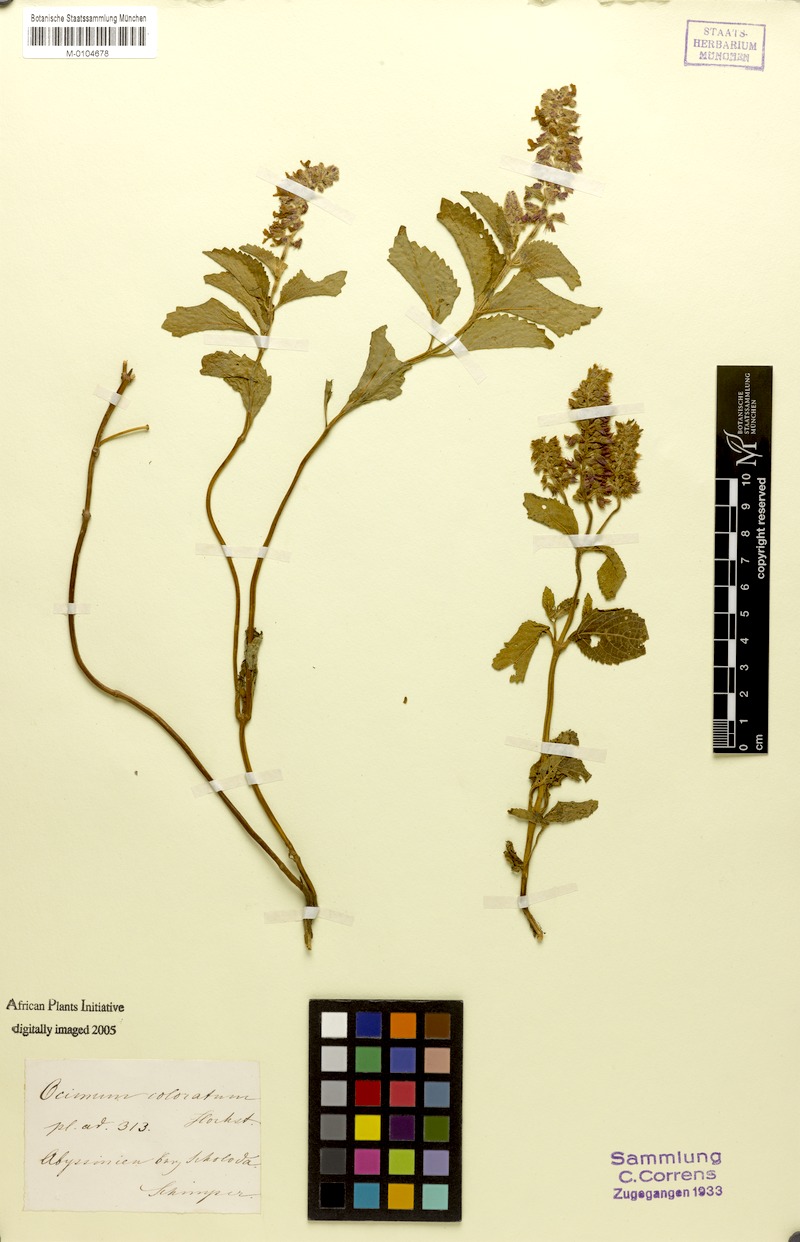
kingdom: Plantae
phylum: Tracheophyta
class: Magnoliopsida
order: Lamiales
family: Lamiaceae
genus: Orthosiphon
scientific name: Orthosiphon schimperi
